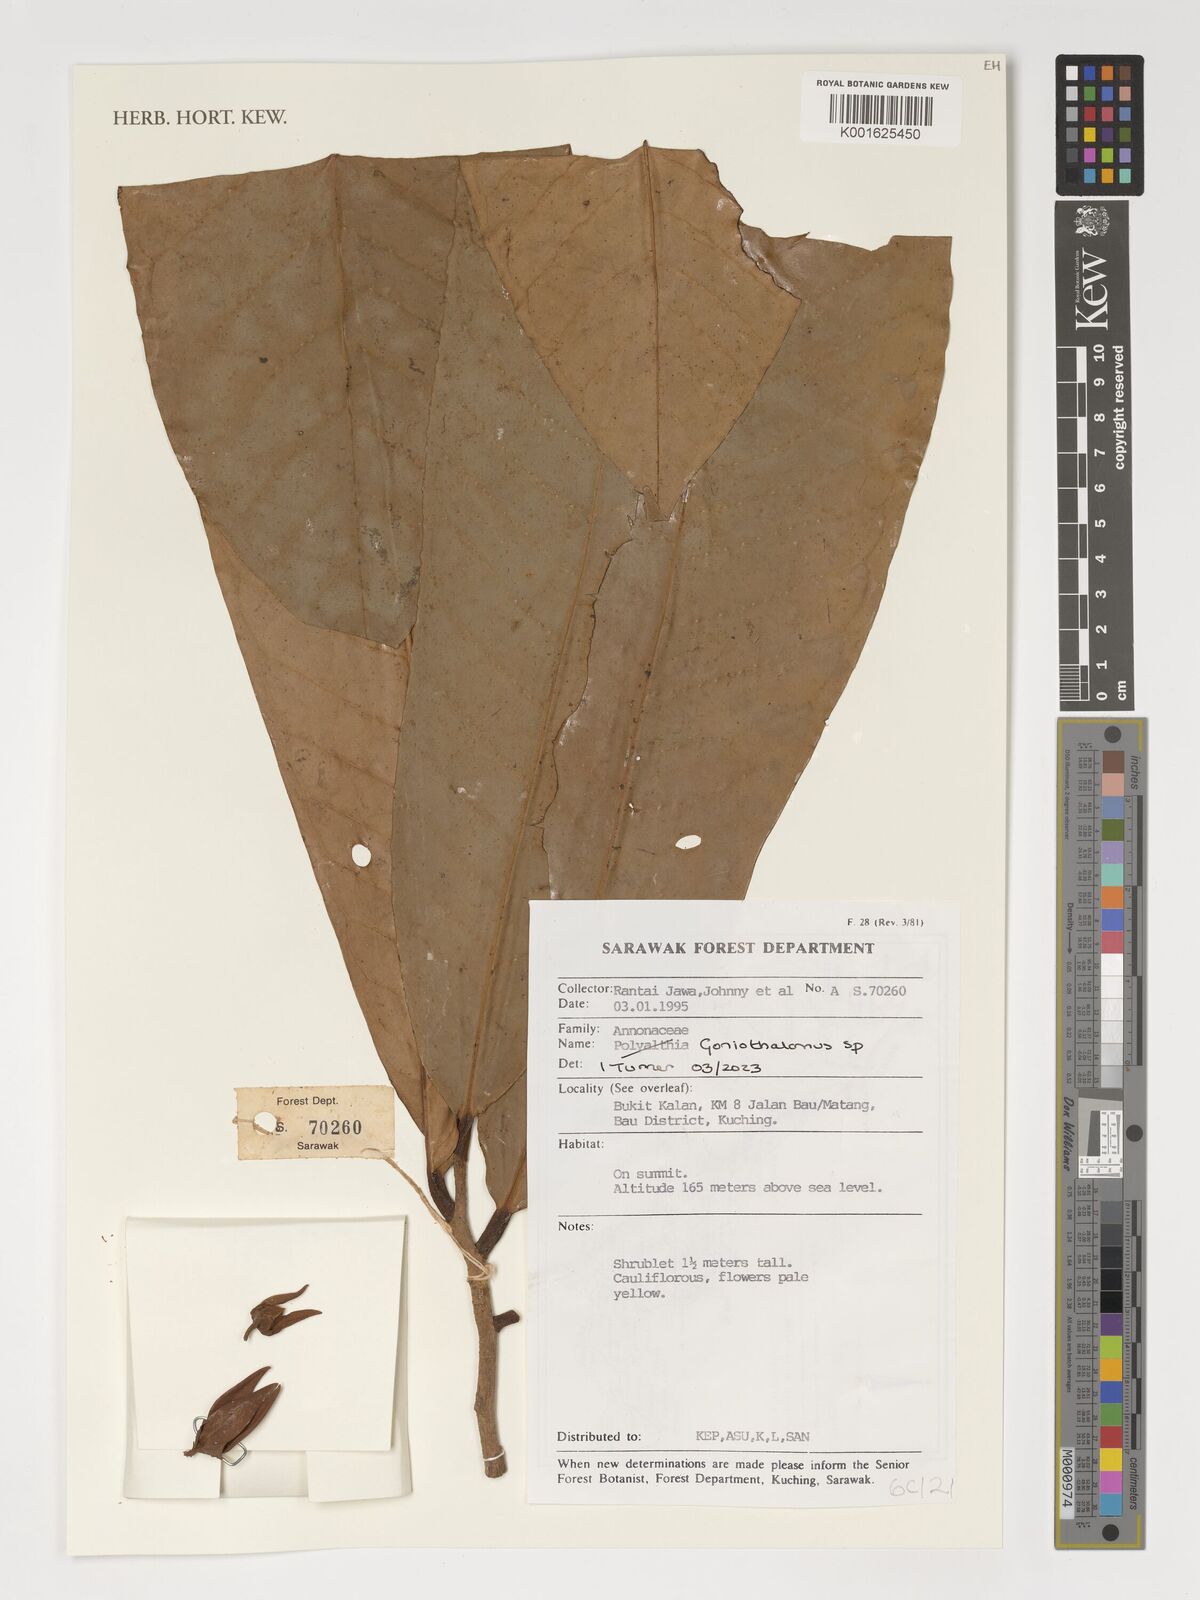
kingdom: Plantae
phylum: Tracheophyta
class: Magnoliopsida
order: Magnoliales
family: Annonaceae
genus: Goniothalamus
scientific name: Goniothalamus
